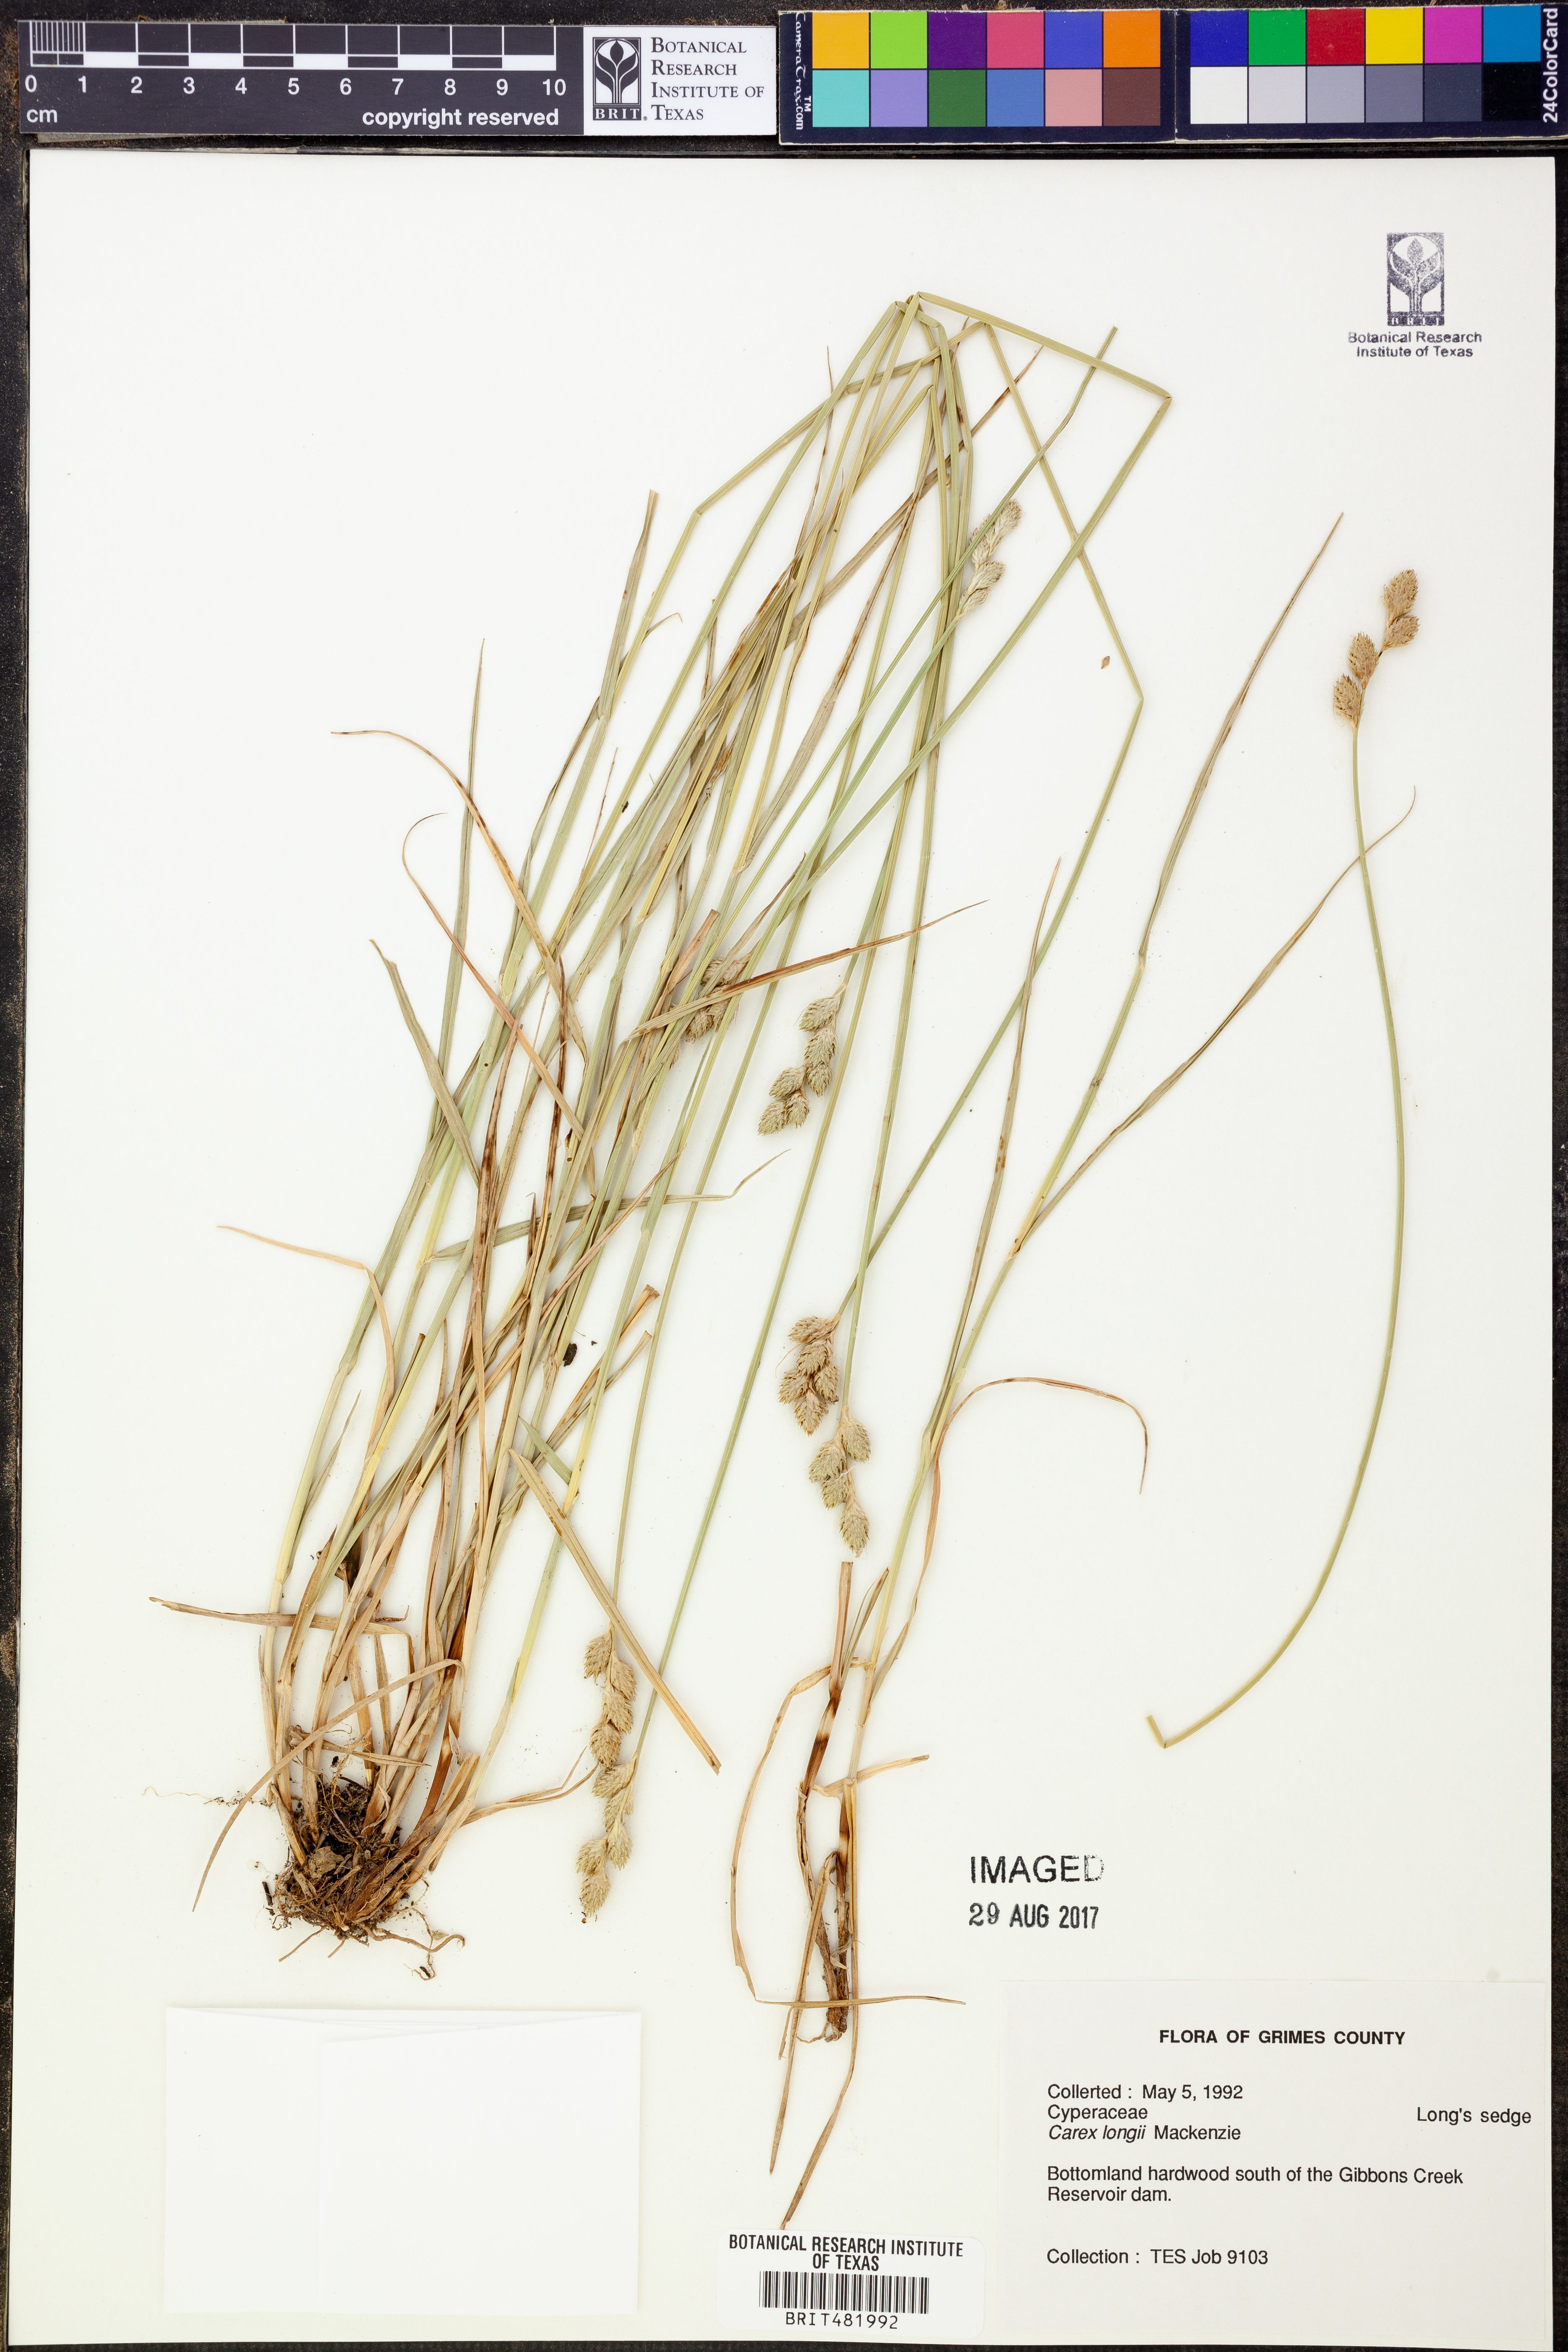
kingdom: Plantae
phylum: Tracheophyta
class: Liliopsida
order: Poales
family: Cyperaceae
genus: Carex
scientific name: Carex longii
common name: Long's sedge
